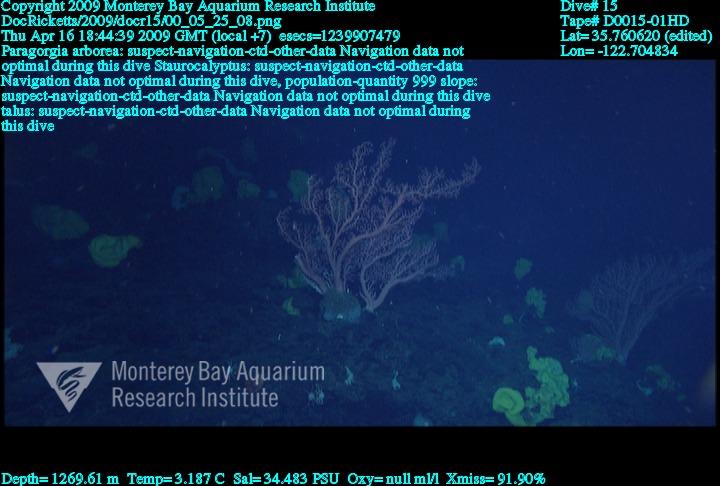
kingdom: Animalia
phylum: Porifera
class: Hexactinellida
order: Lyssacinosida
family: Rossellidae
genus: Staurocalyptus
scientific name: Staurocalyptus
